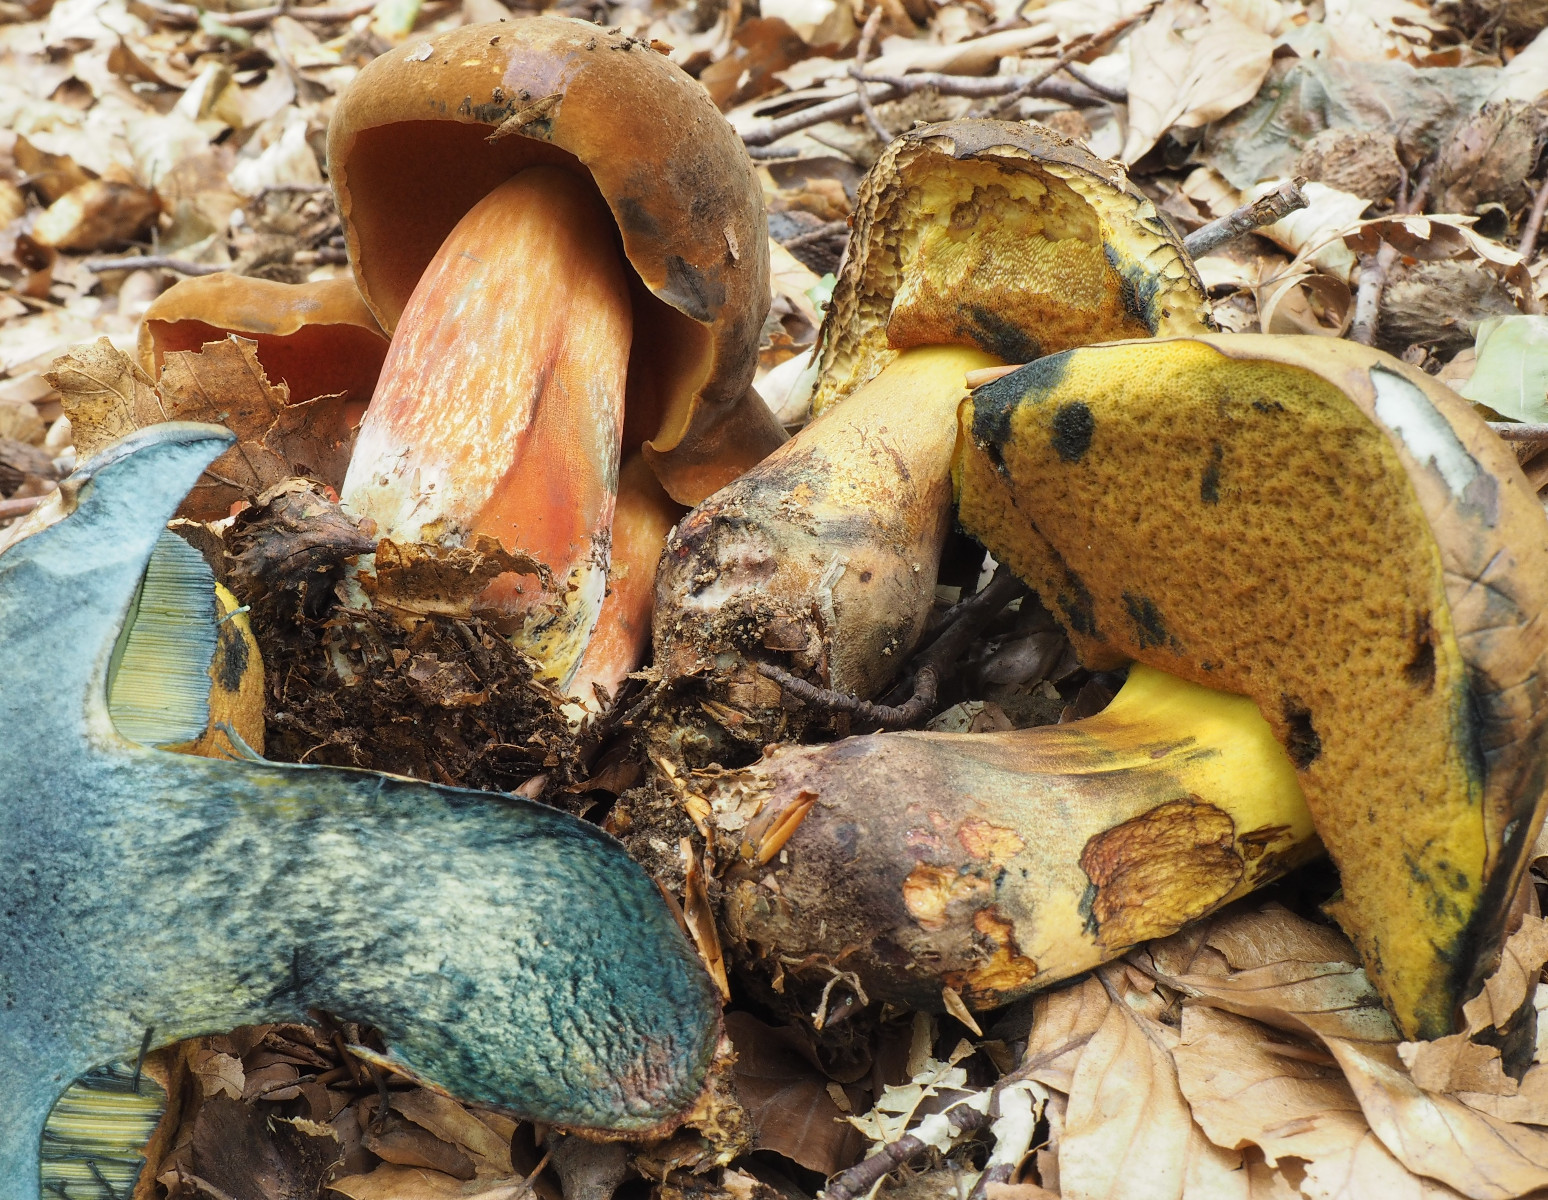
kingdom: Fungi
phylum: Basidiomycota
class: Agaricomycetes
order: Boletales
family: Boletaceae
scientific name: Boletaceae
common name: rørhatfamilien
